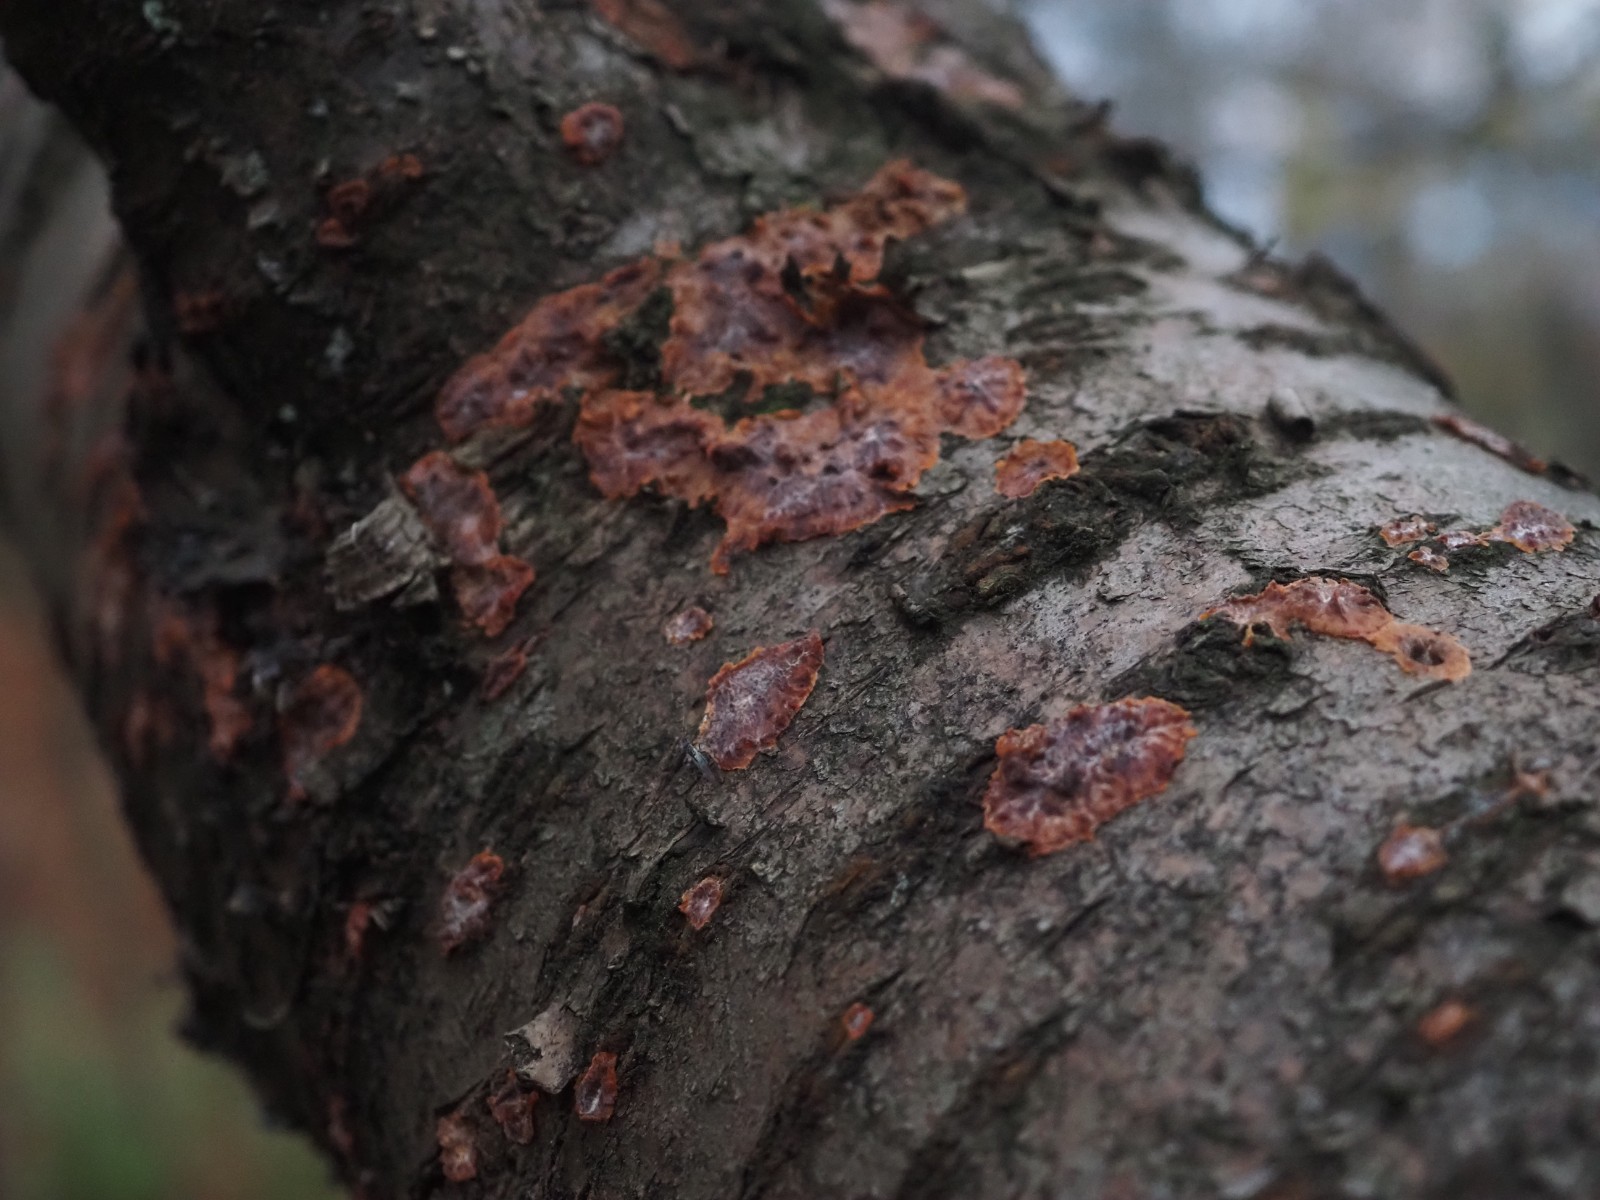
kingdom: Fungi
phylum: Basidiomycota
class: Agaricomycetes
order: Polyporales
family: Meruliaceae
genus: Phlebia
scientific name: Phlebia radiata
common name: stråle-åresvamp
